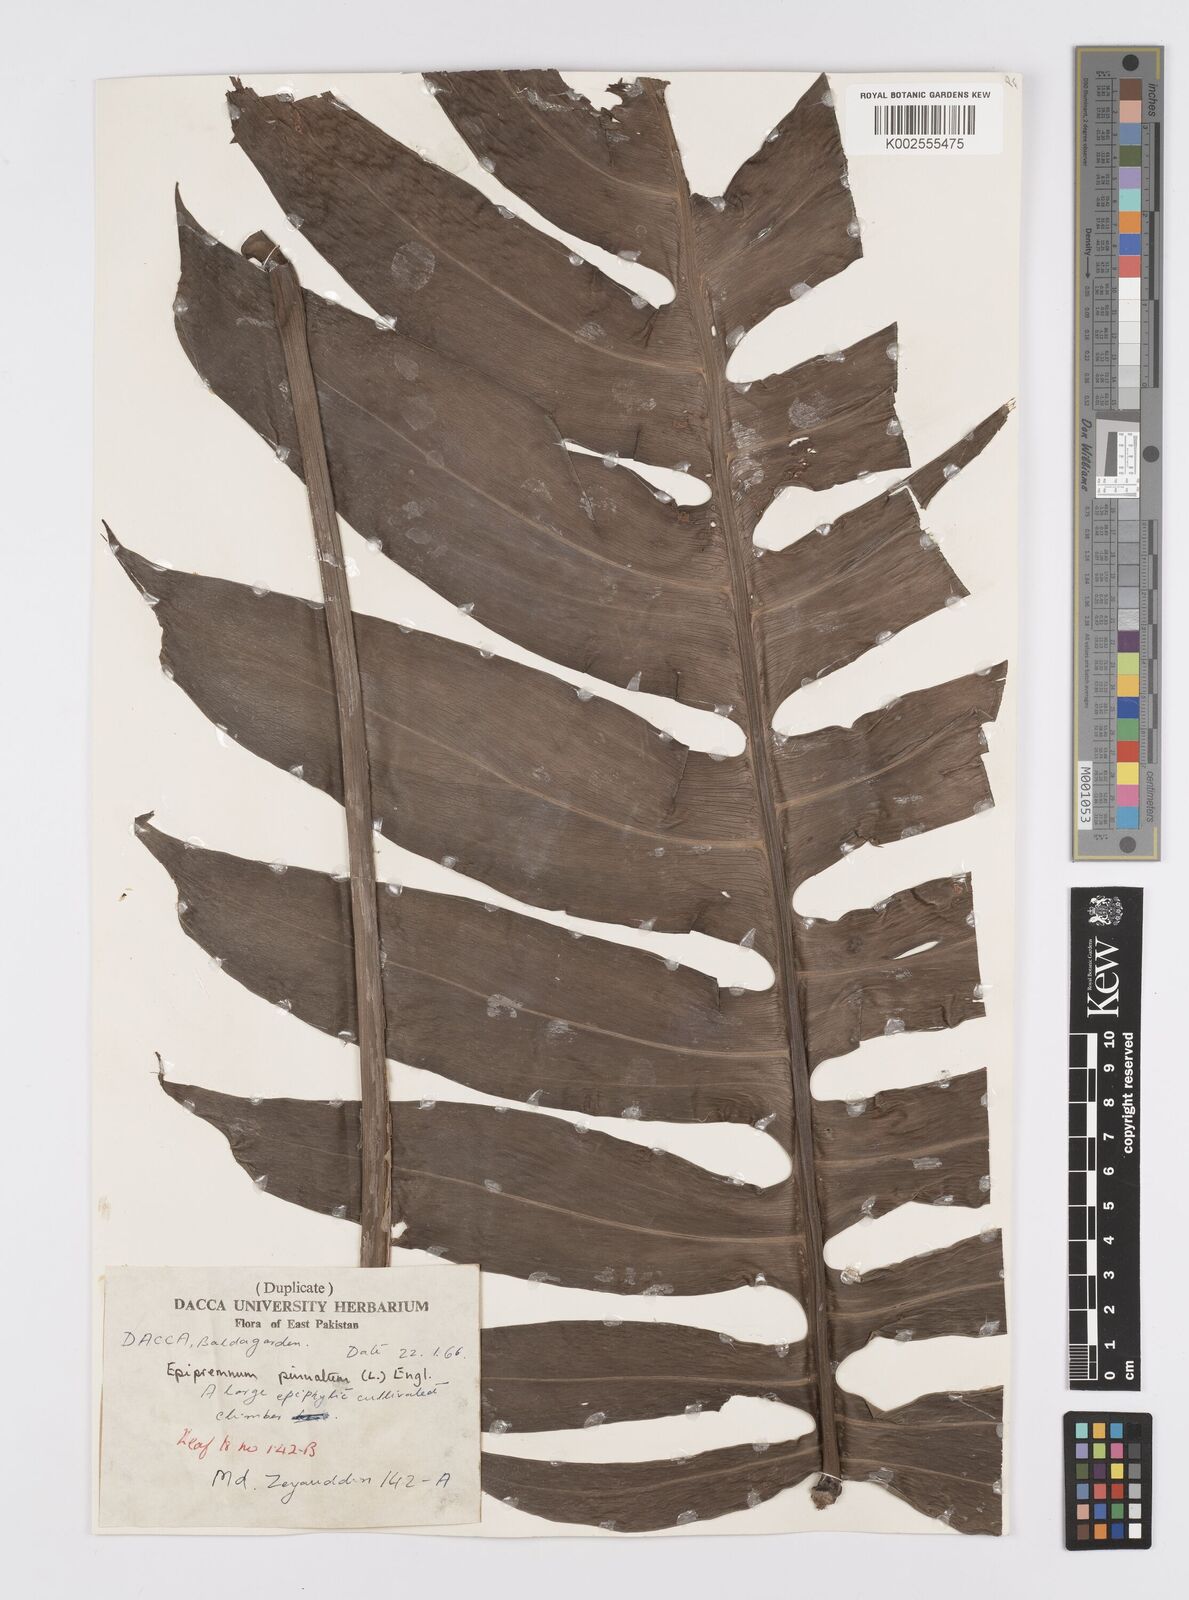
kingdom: Plantae
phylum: Tracheophyta
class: Liliopsida
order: Alismatales
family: Araceae
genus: Epipremnum
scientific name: Epipremnum pinnatum
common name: Centipede tongavine
